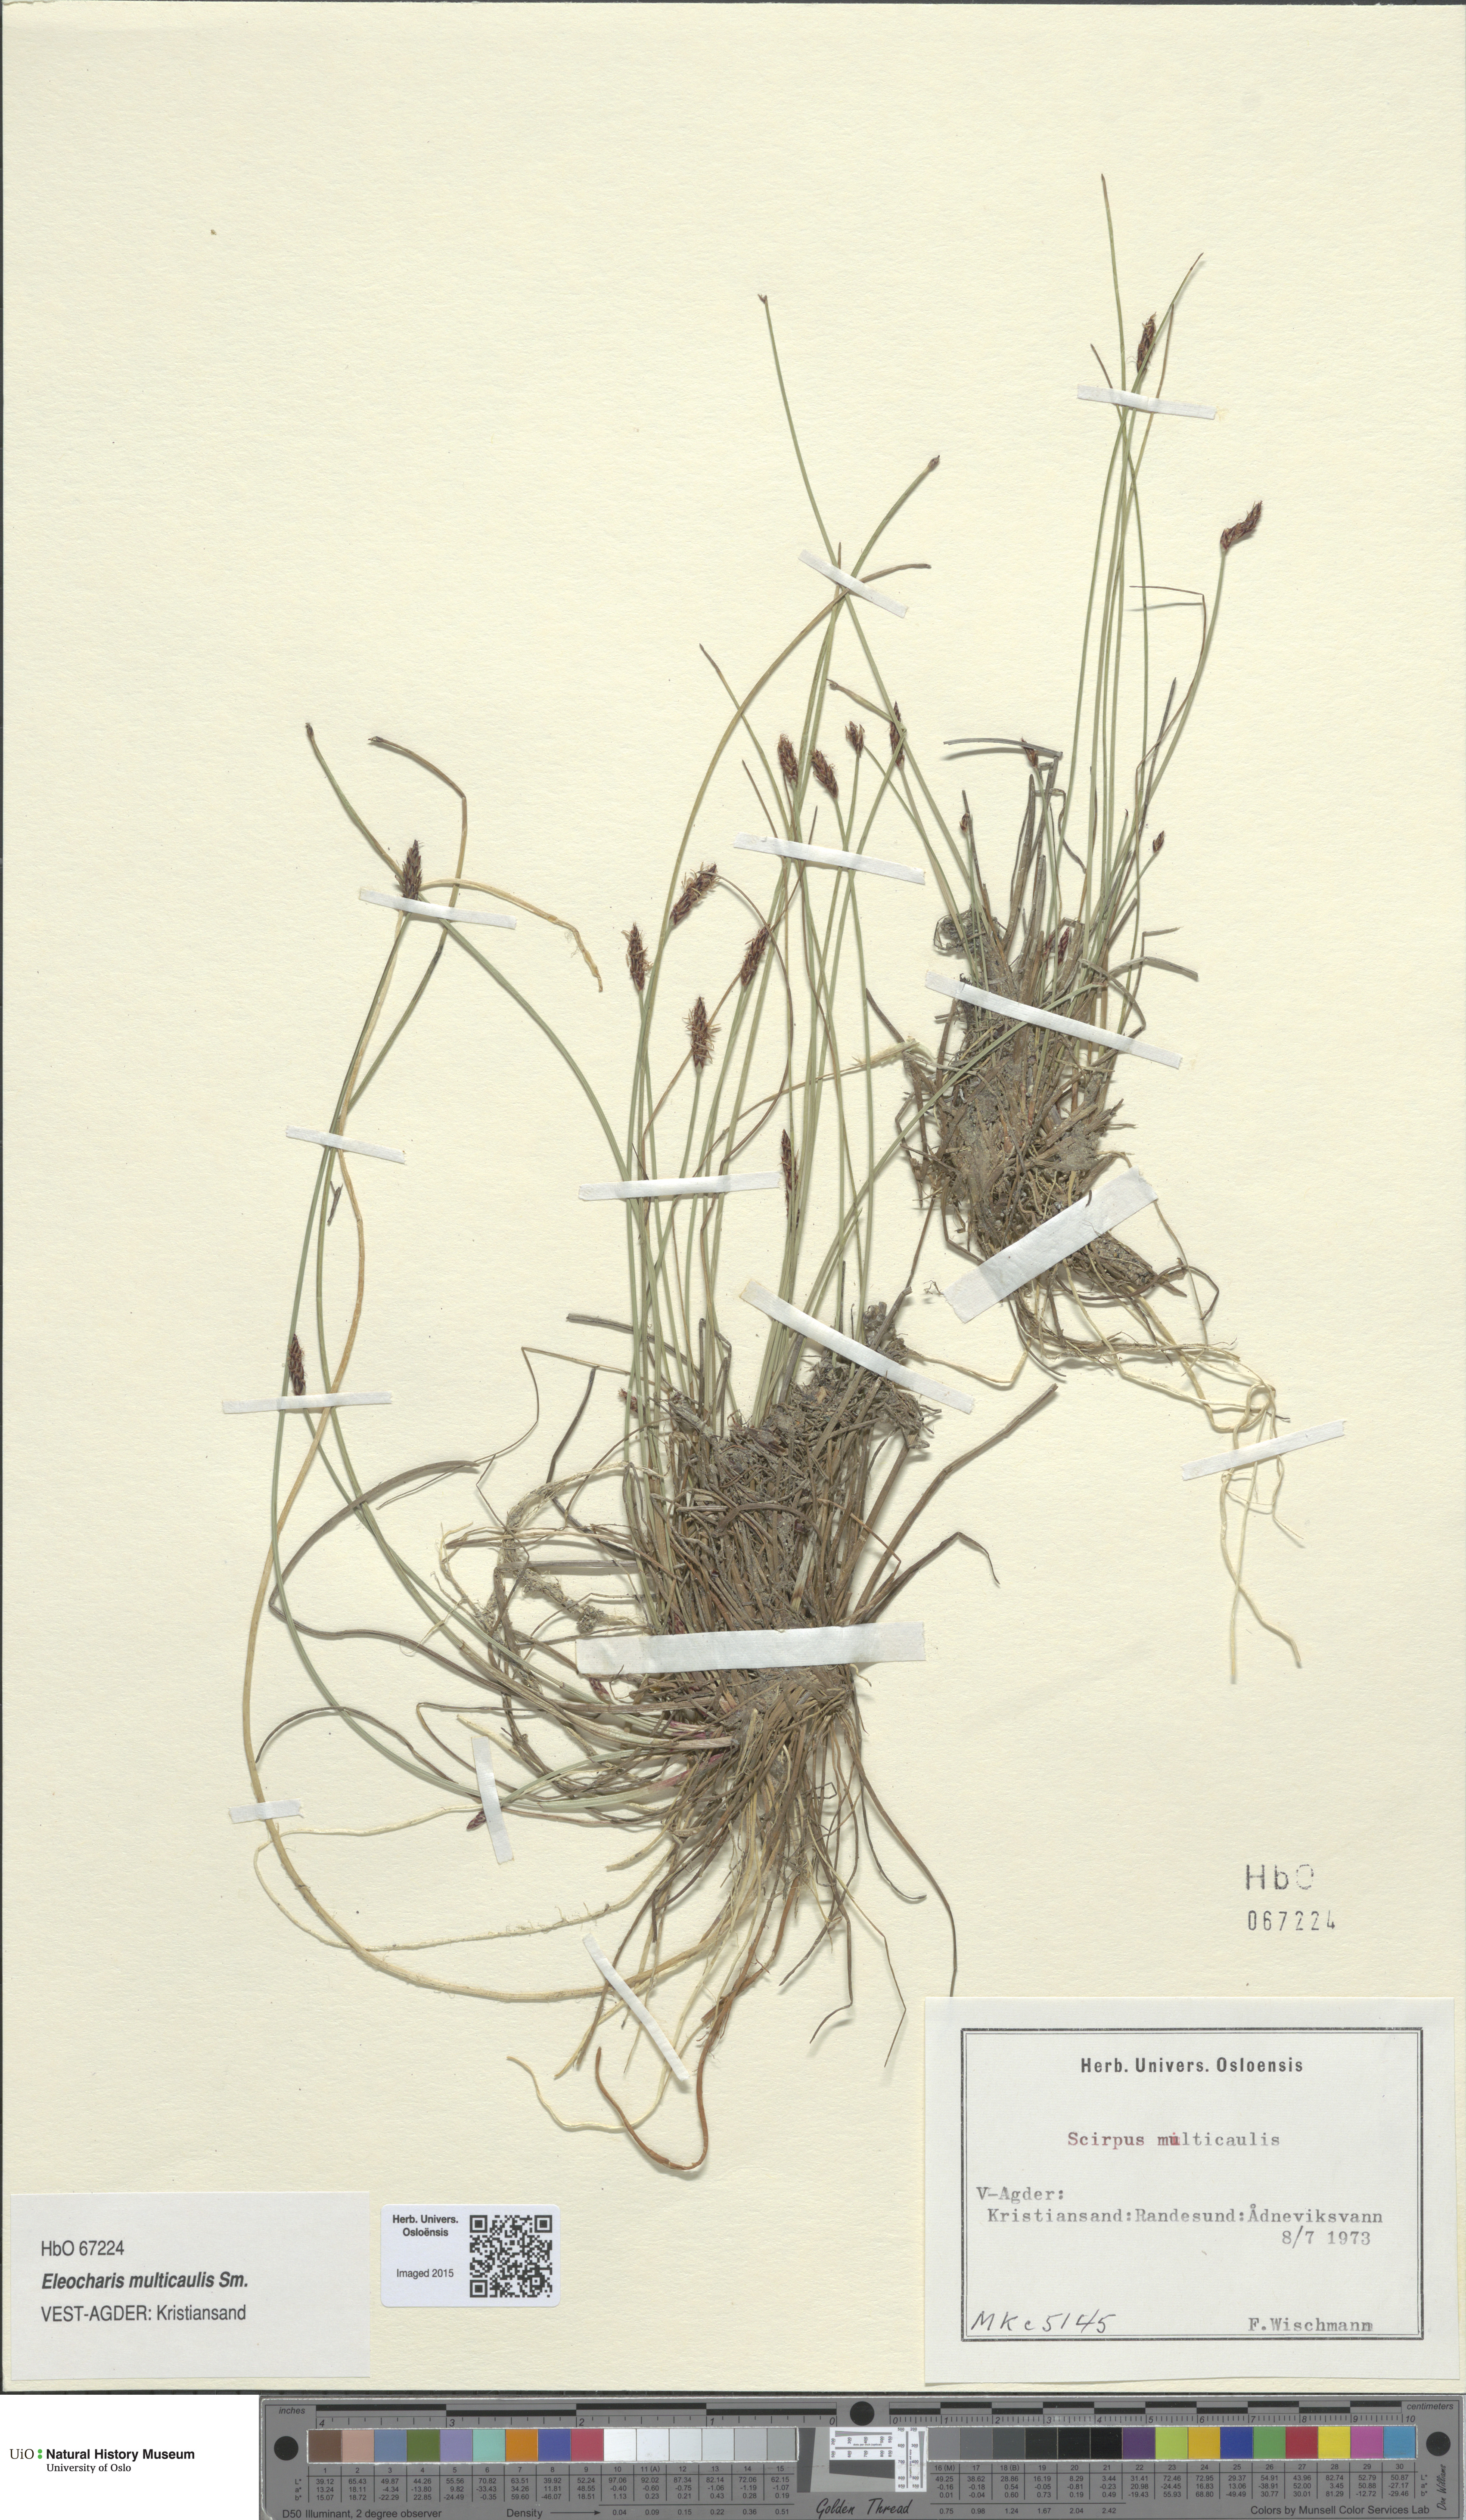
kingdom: Plantae
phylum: Tracheophyta
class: Liliopsida
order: Poales
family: Cyperaceae
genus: Eleocharis
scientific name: Eleocharis multicaulis
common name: Many-stalked spike-rush
